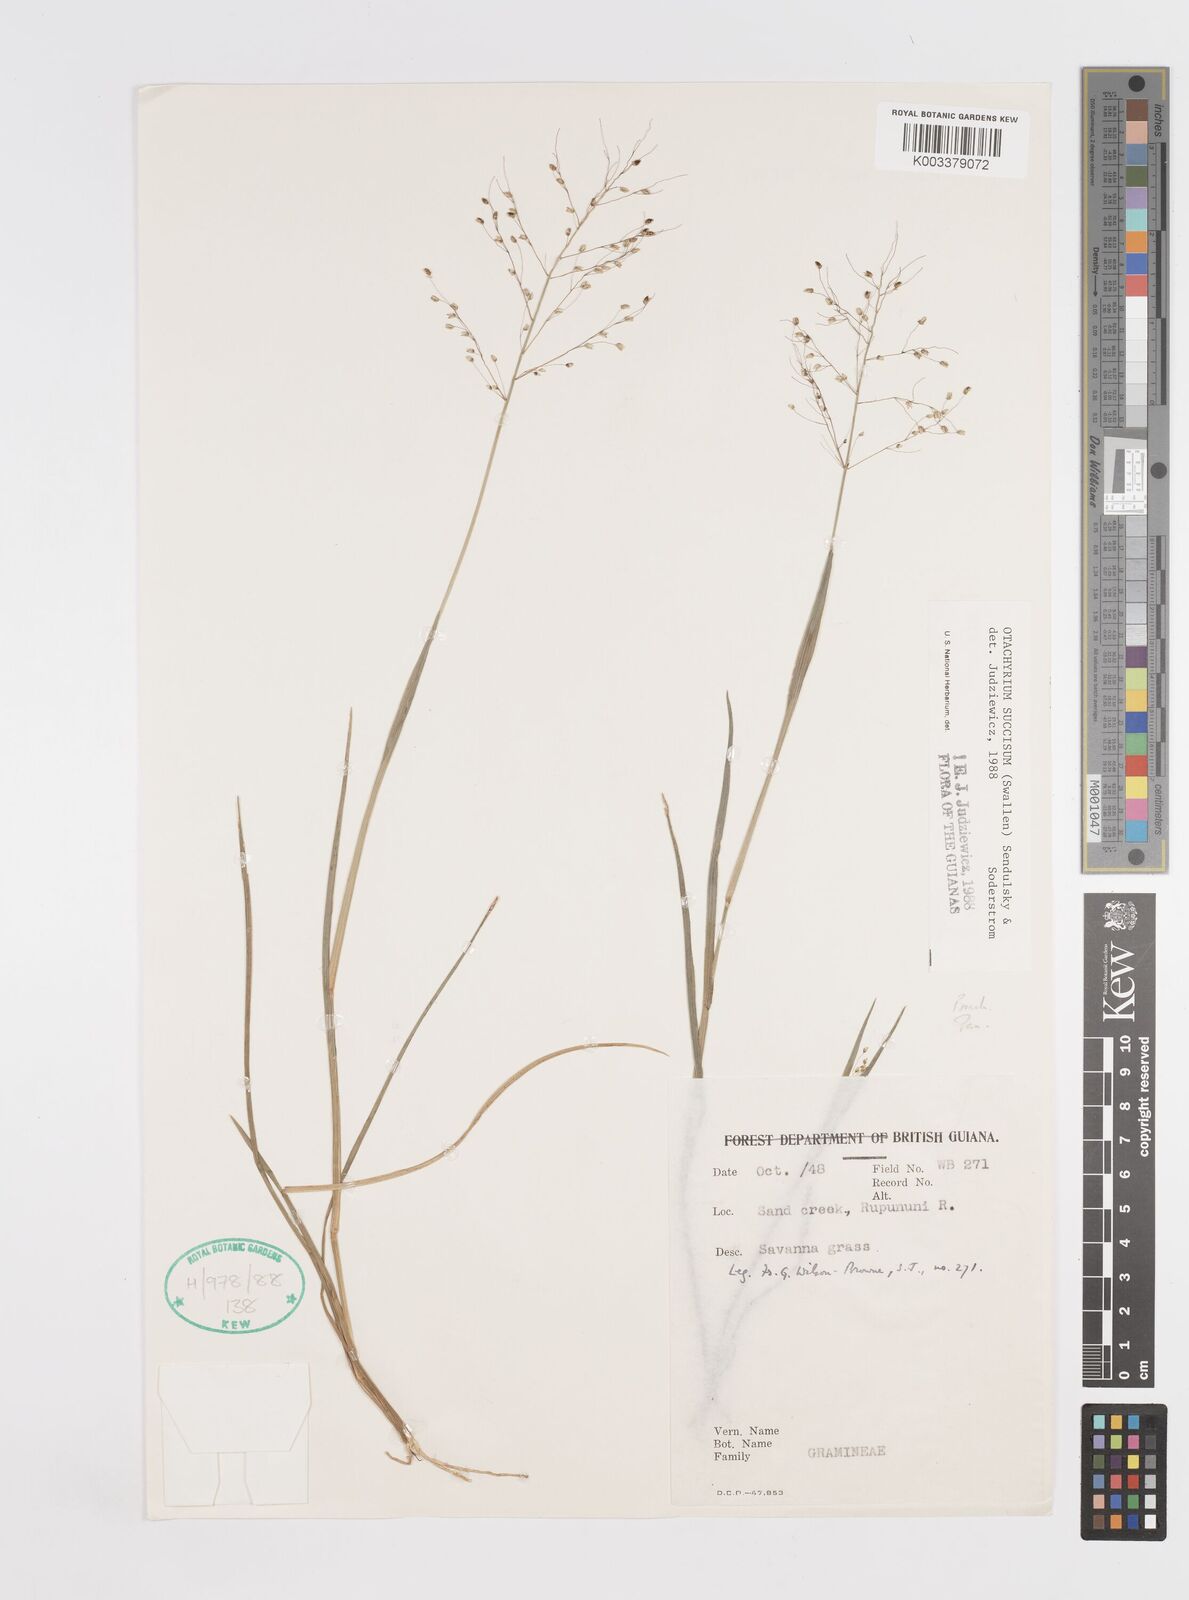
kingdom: Plantae
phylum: Tracheophyta
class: Liliopsida
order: Poales
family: Poaceae
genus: Otachyrium
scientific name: Otachyrium inaequale
